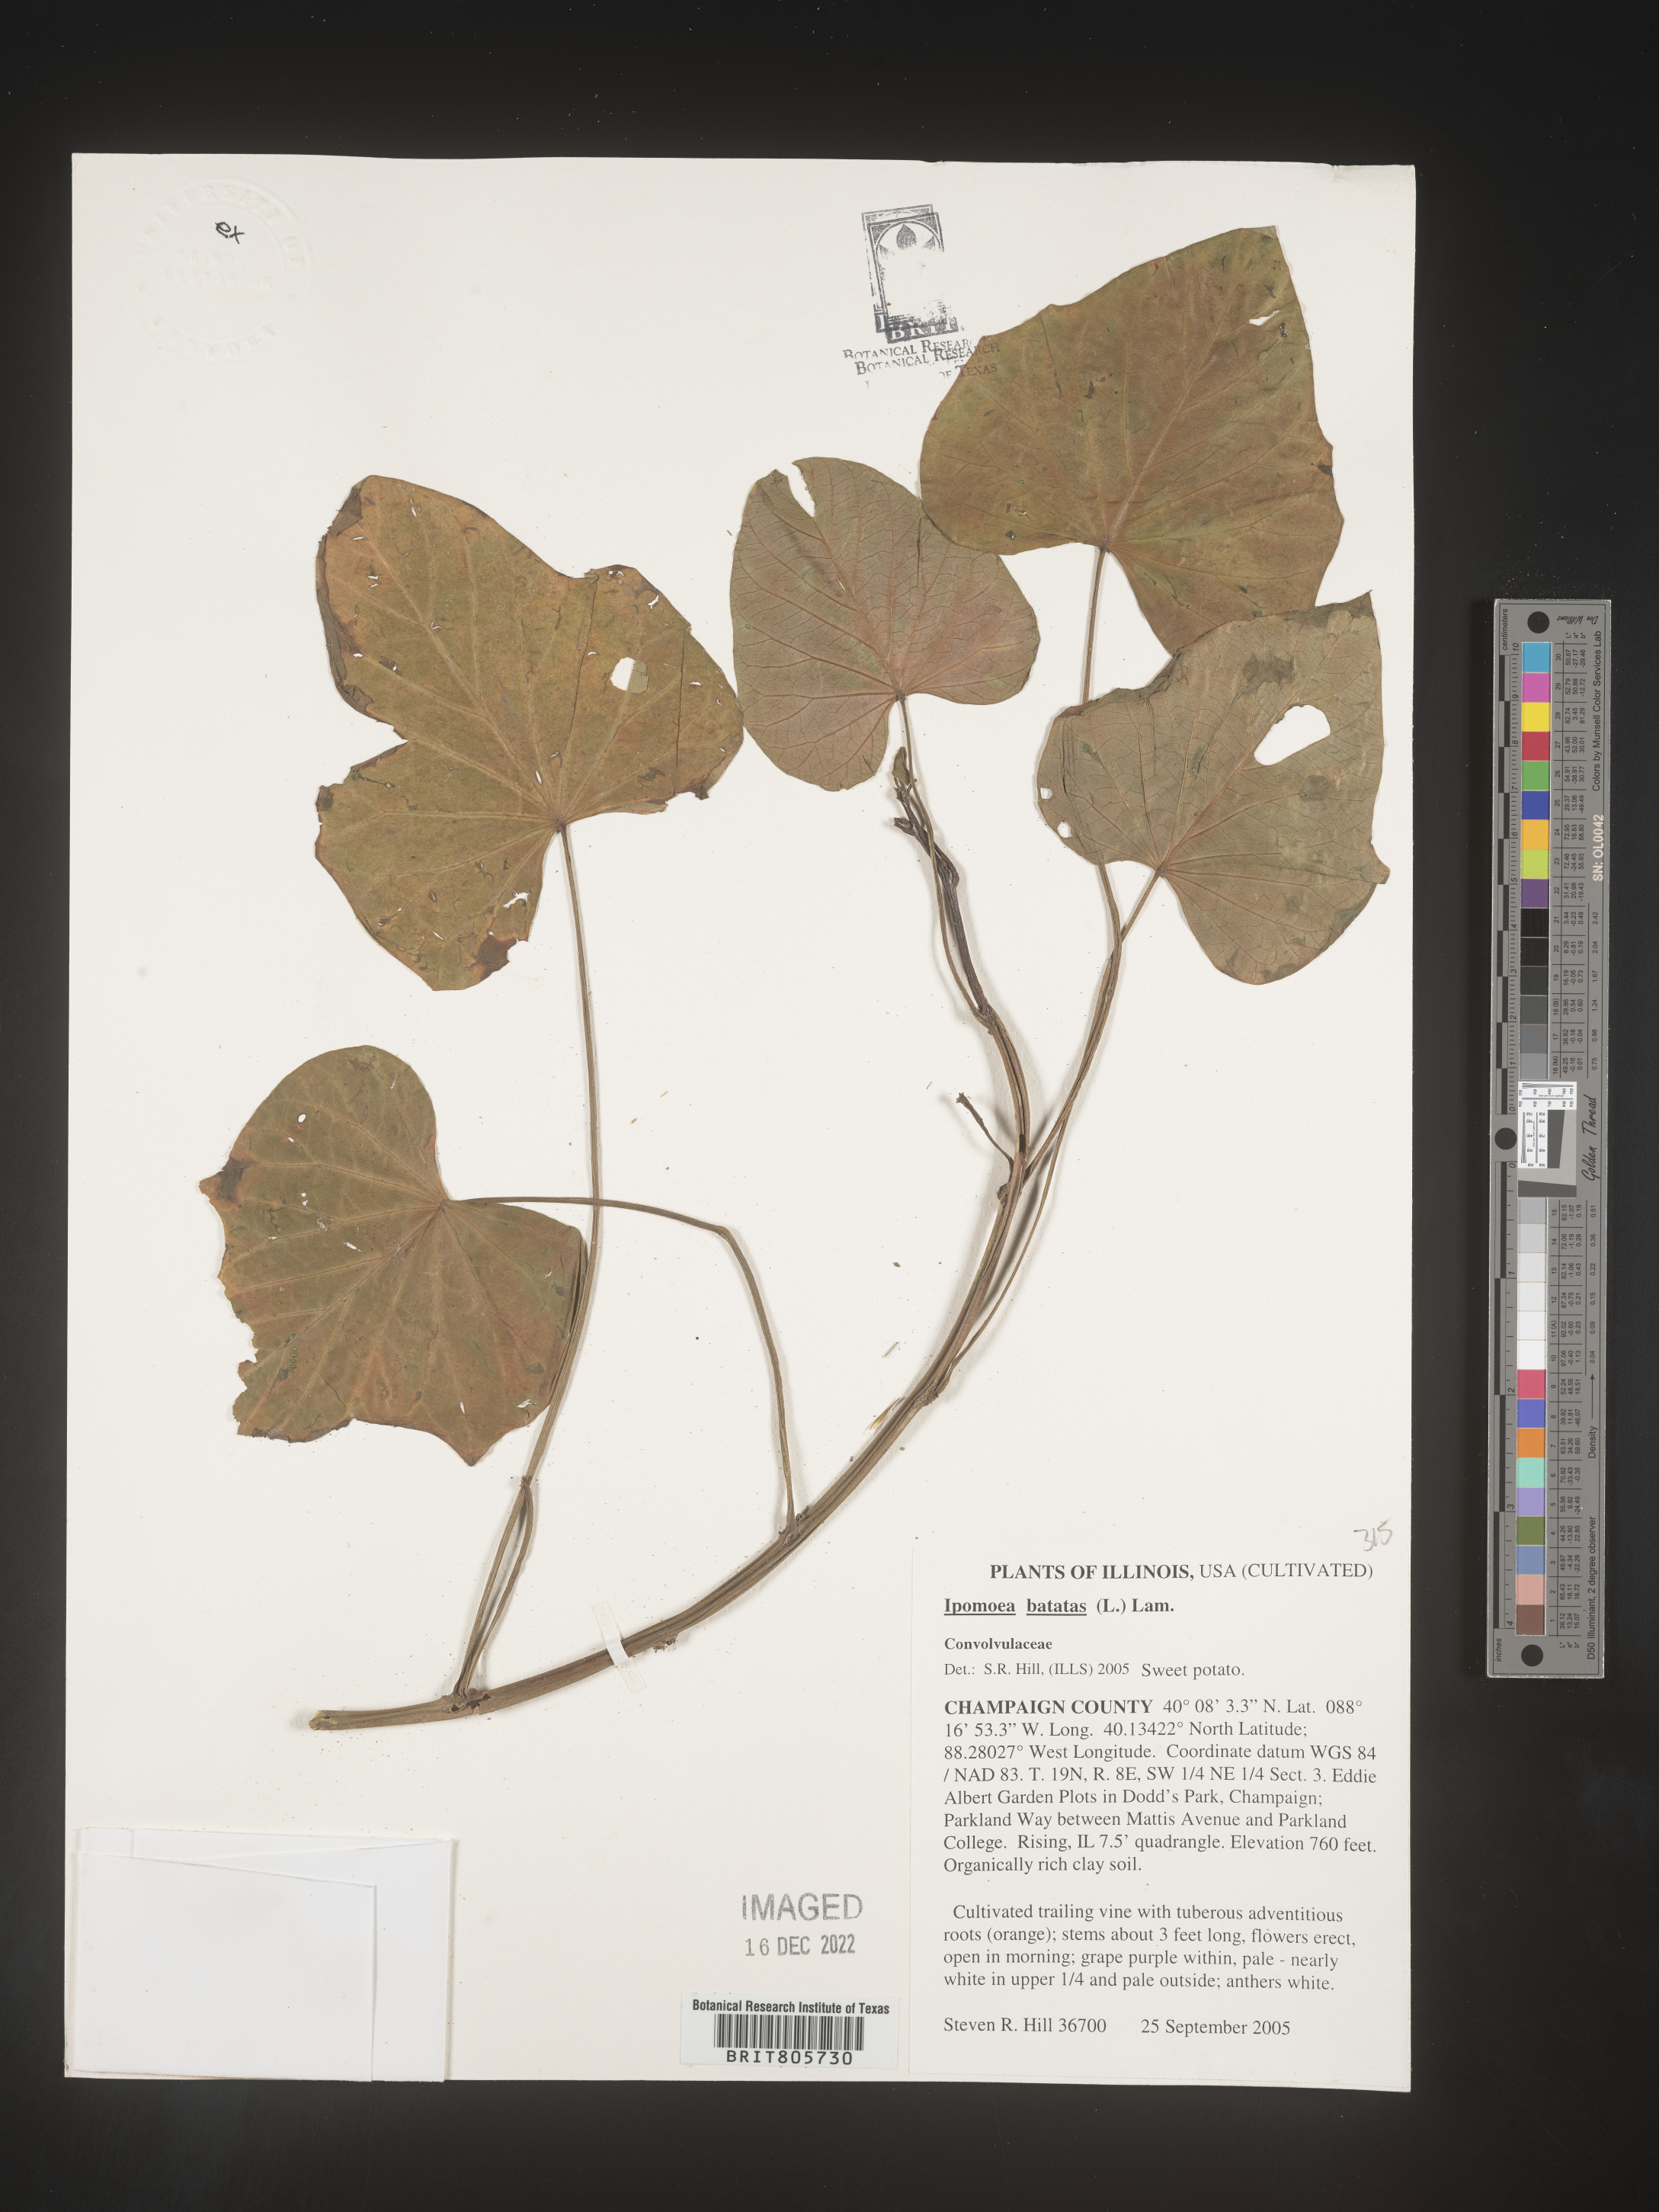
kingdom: Plantae
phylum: Tracheophyta
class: Magnoliopsida
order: Solanales
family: Convolvulaceae
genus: Ipomoea
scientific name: Ipomoea
